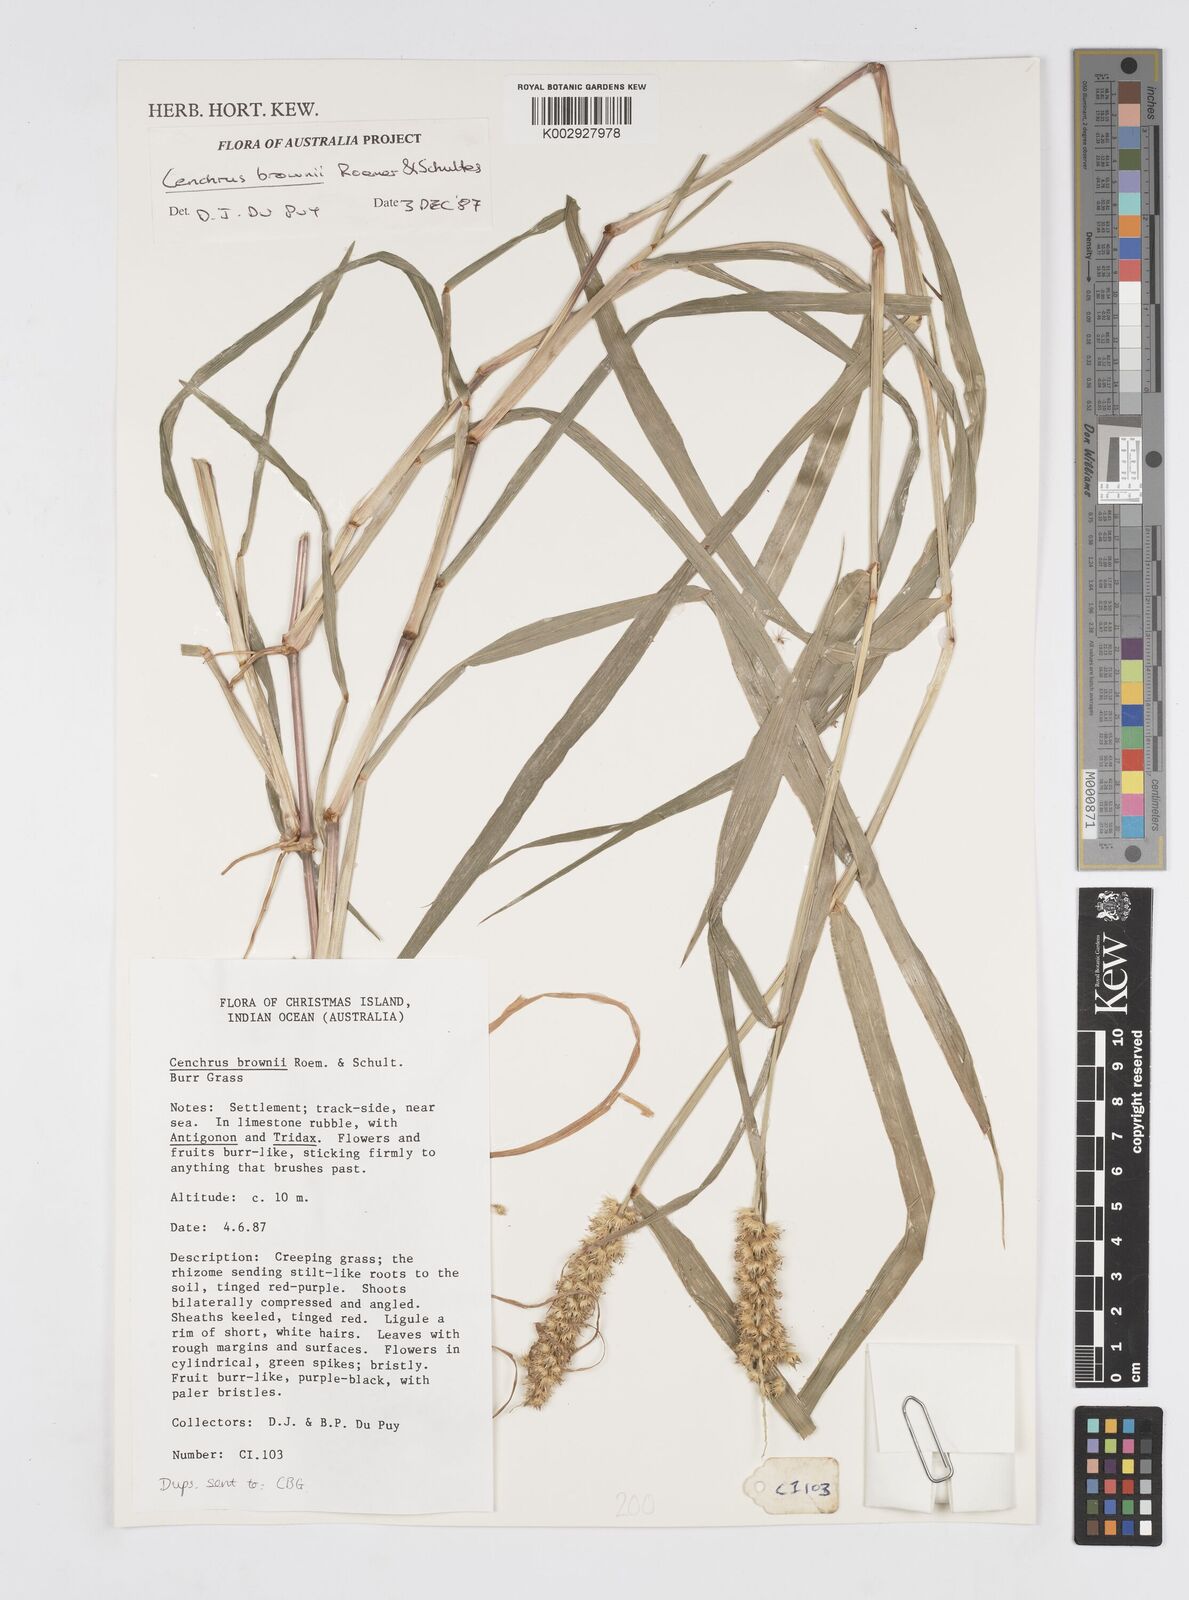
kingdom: Plantae
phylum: Tracheophyta
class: Liliopsida
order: Poales
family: Poaceae
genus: Cenchrus
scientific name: Cenchrus brownii
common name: Slim-bristle sandbur
